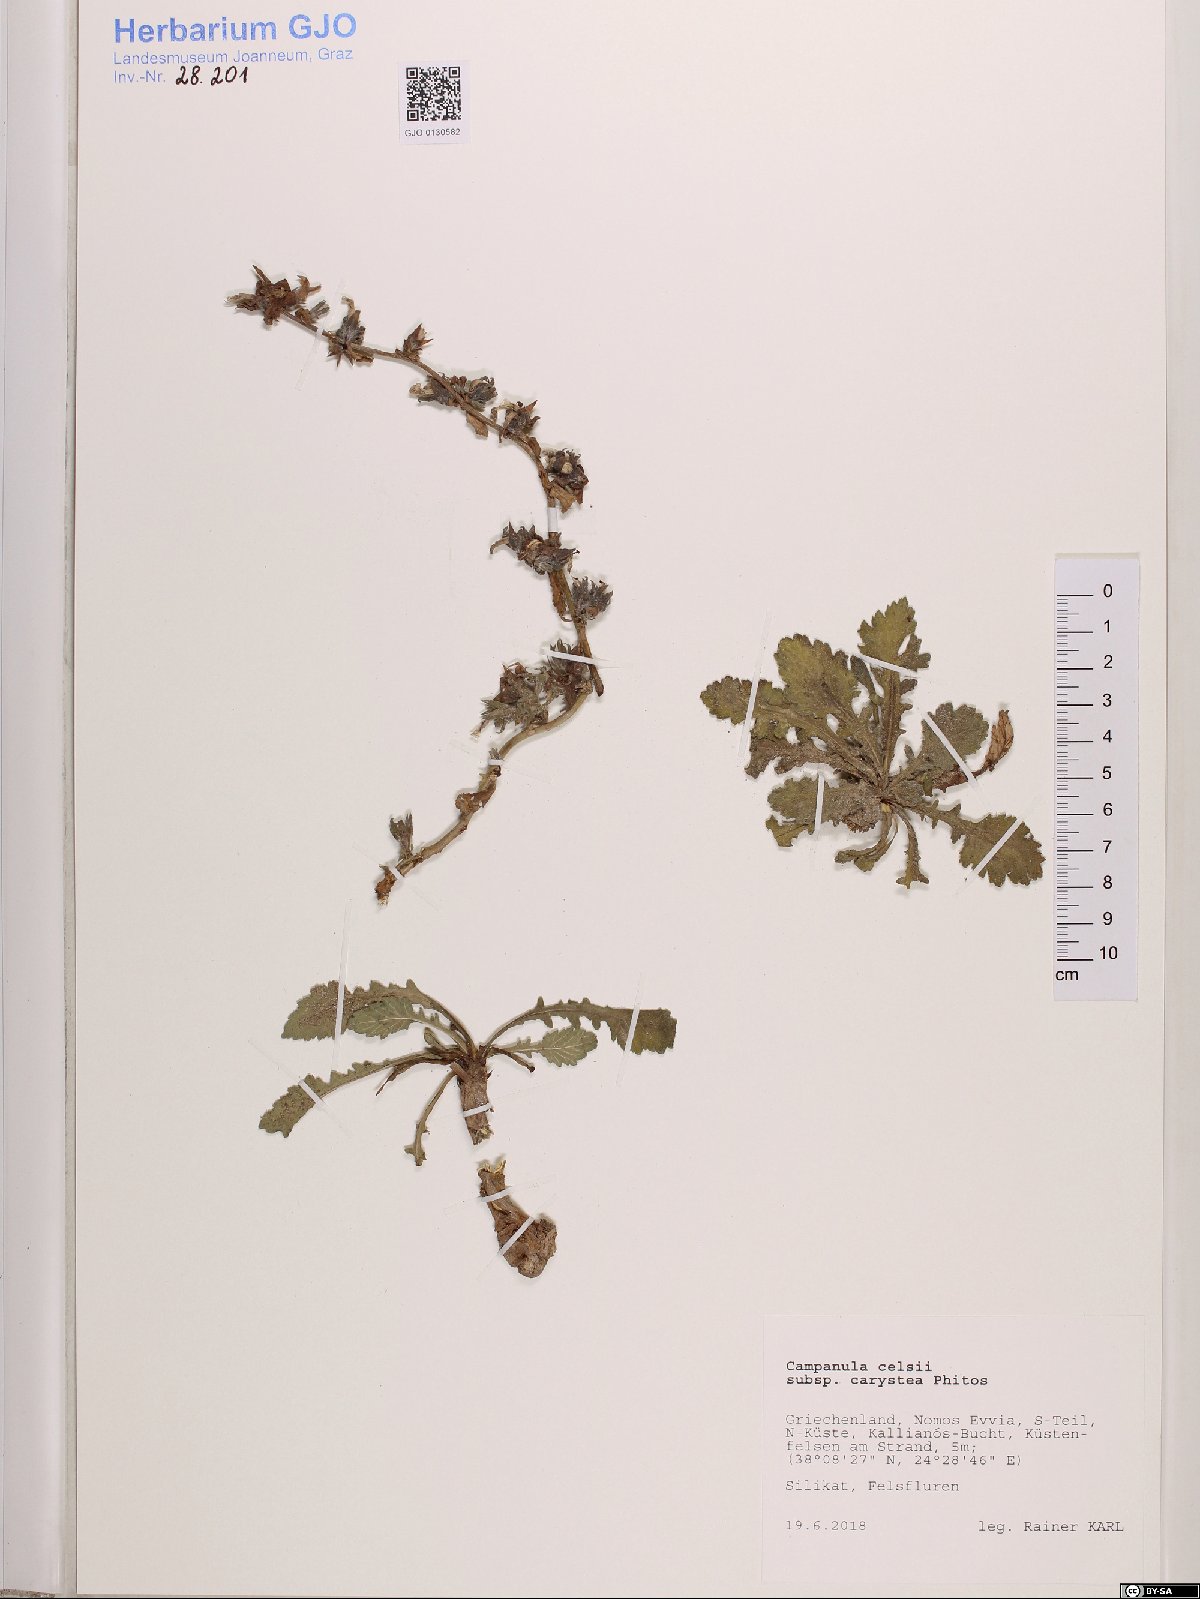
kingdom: Plantae
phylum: Tracheophyta
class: Magnoliopsida
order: Asterales
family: Campanulaceae
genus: Campanula
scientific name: Campanula celsii
